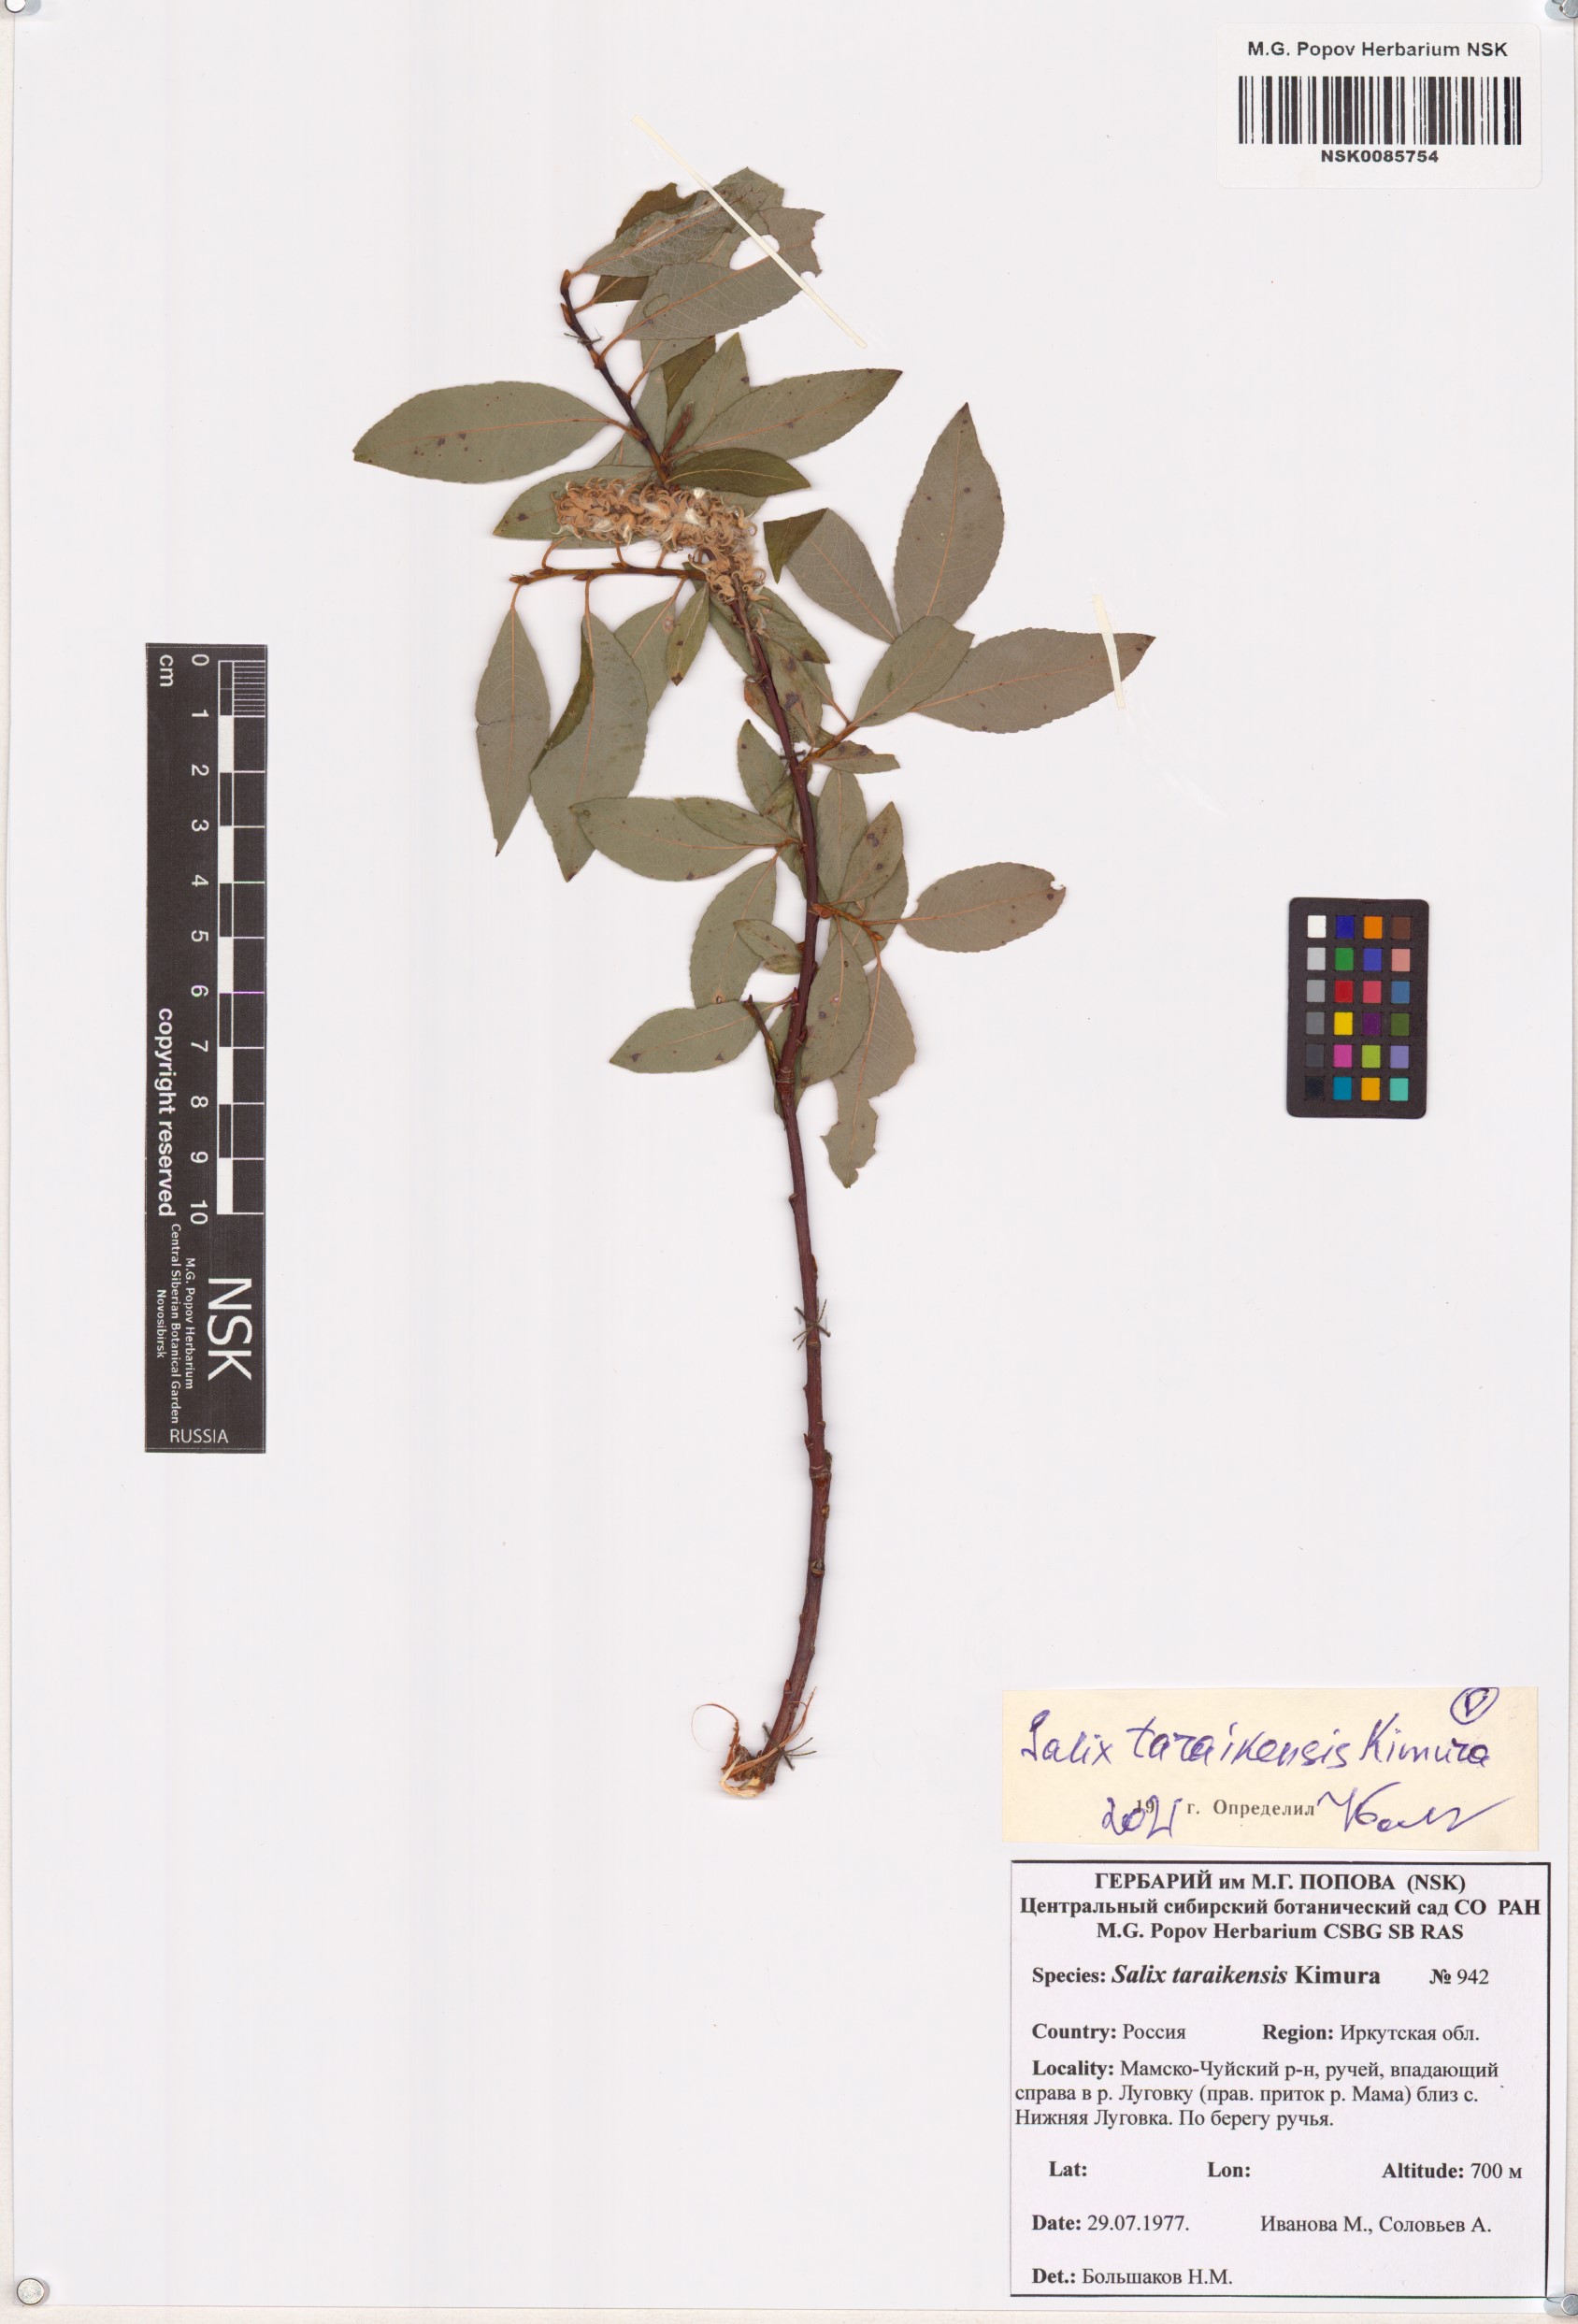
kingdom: Plantae
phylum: Tracheophyta
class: Magnoliopsida
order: Malpighiales
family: Salicaceae
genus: Salix
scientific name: Salix taraikensis
